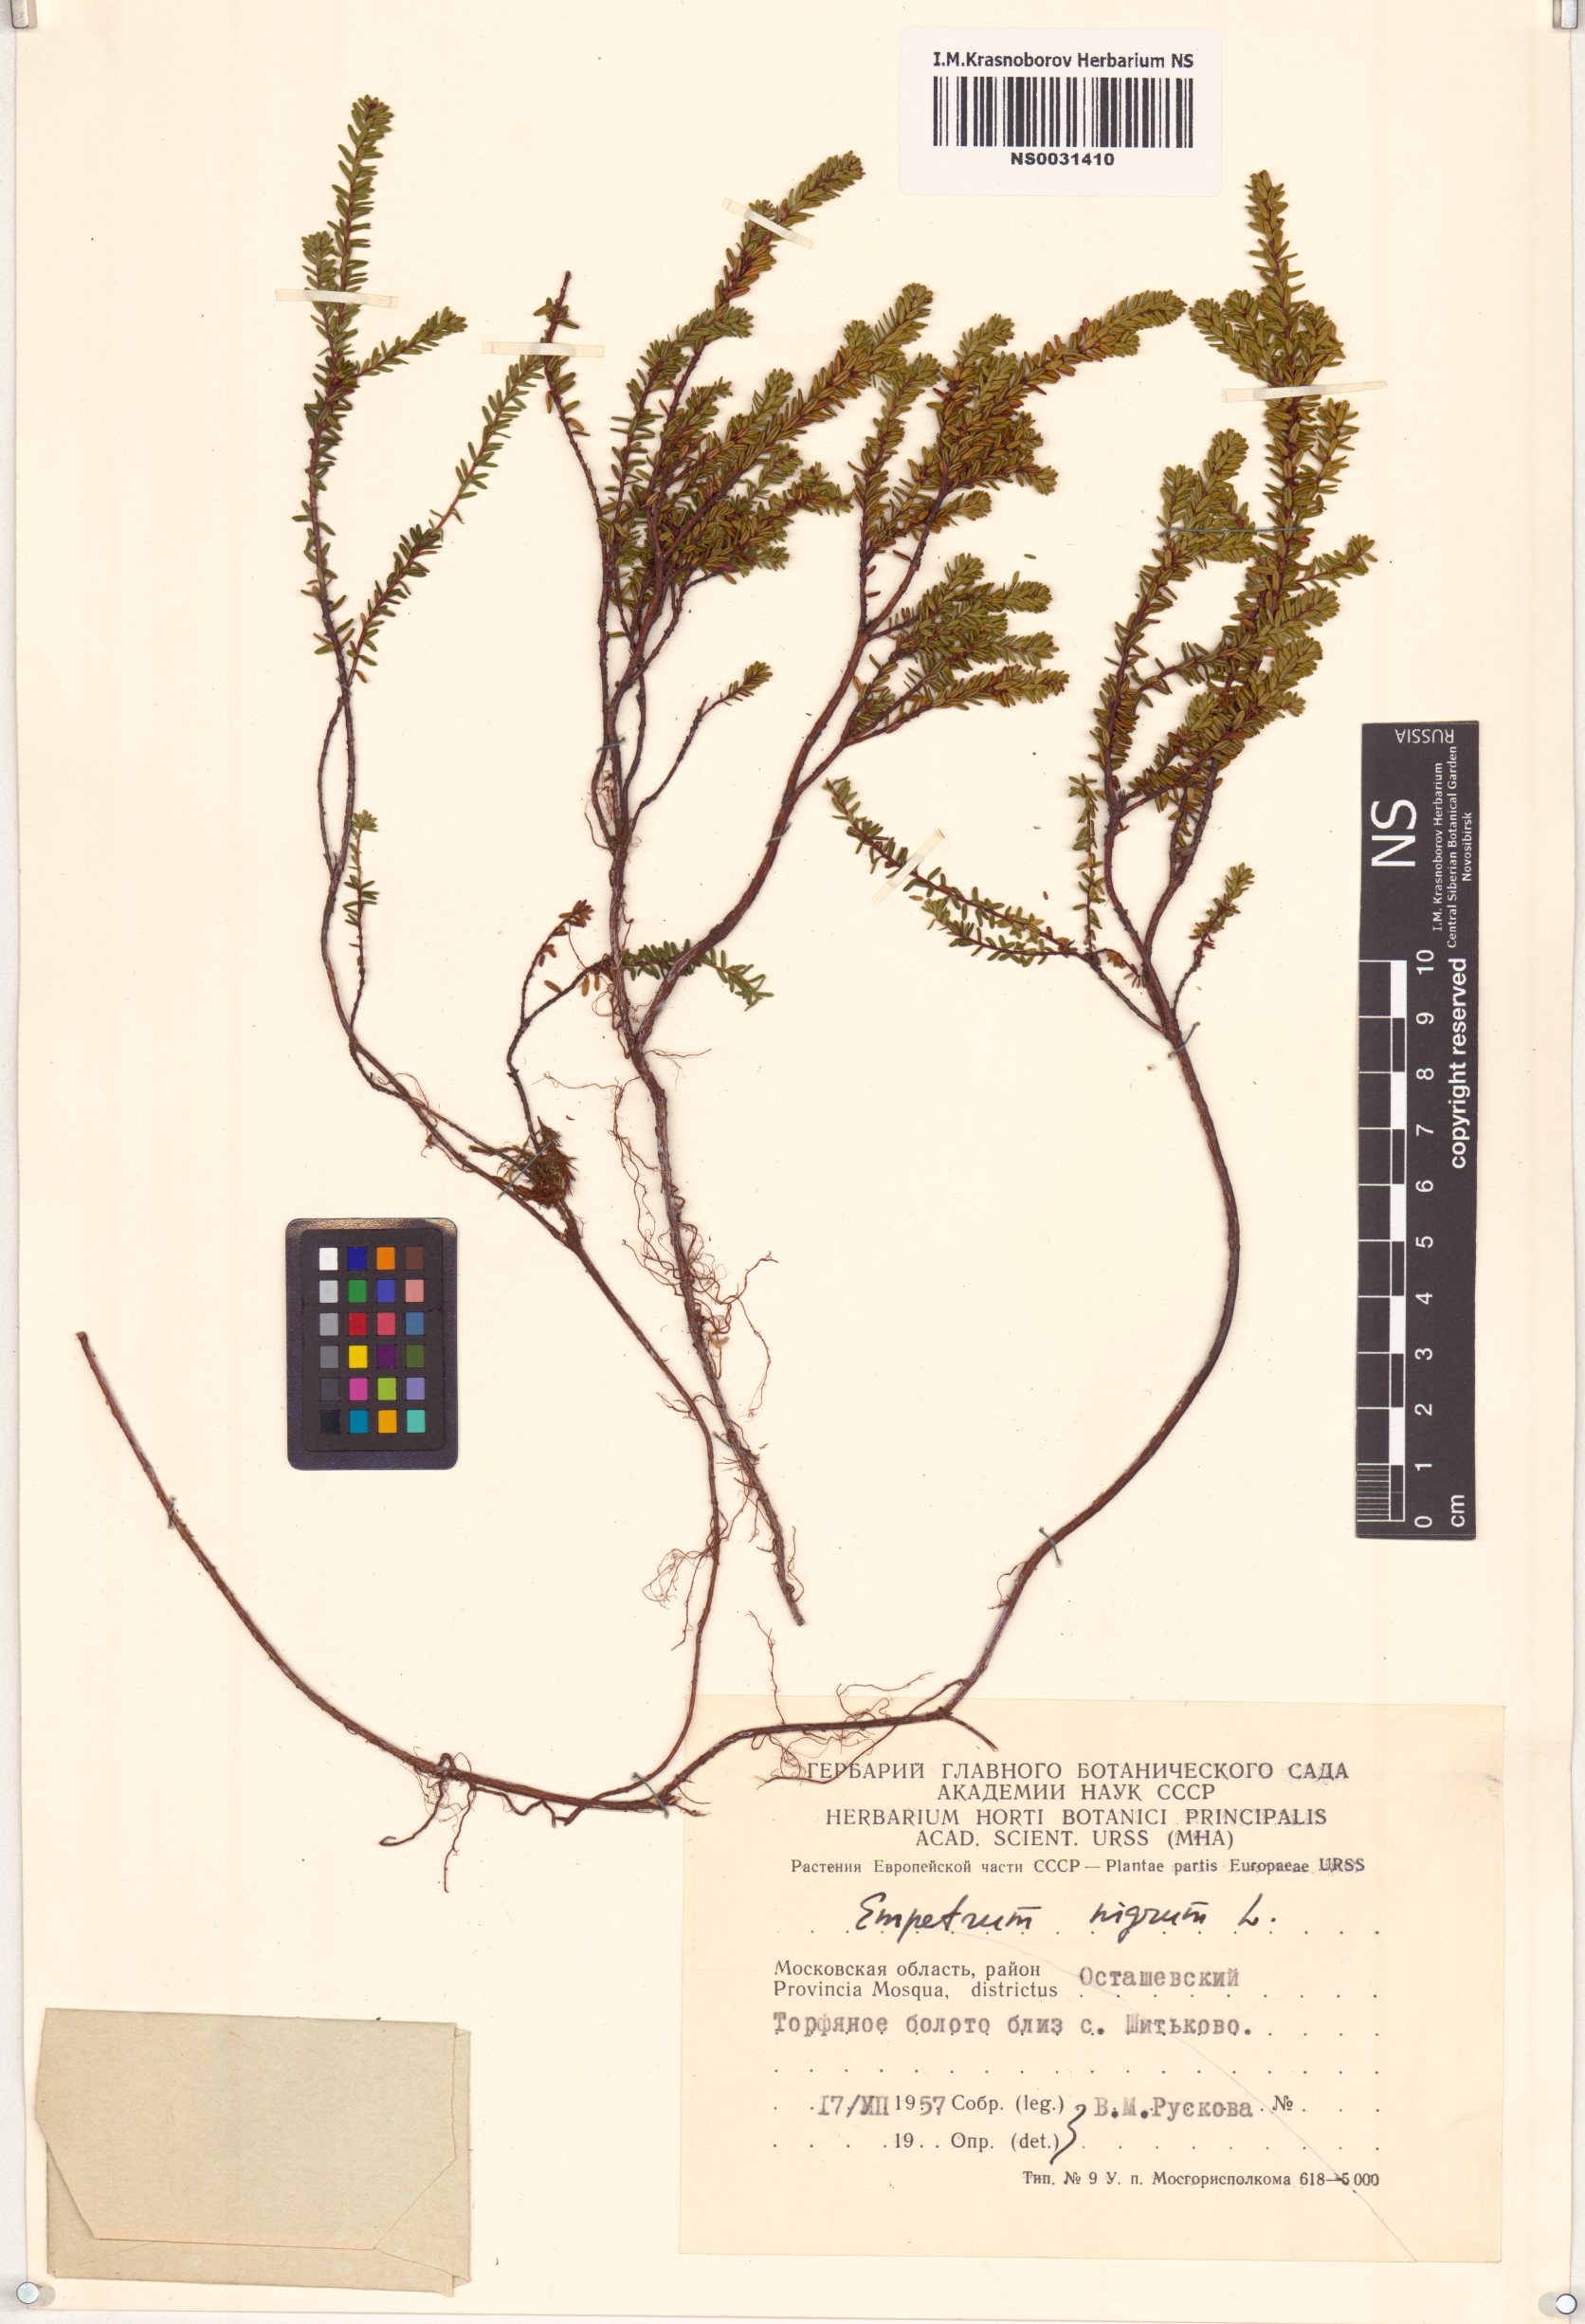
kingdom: Plantae
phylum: Tracheophyta
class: Magnoliopsida
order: Ericales
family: Ericaceae
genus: Empetrum
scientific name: Empetrum nigrum
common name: Black crowberry
